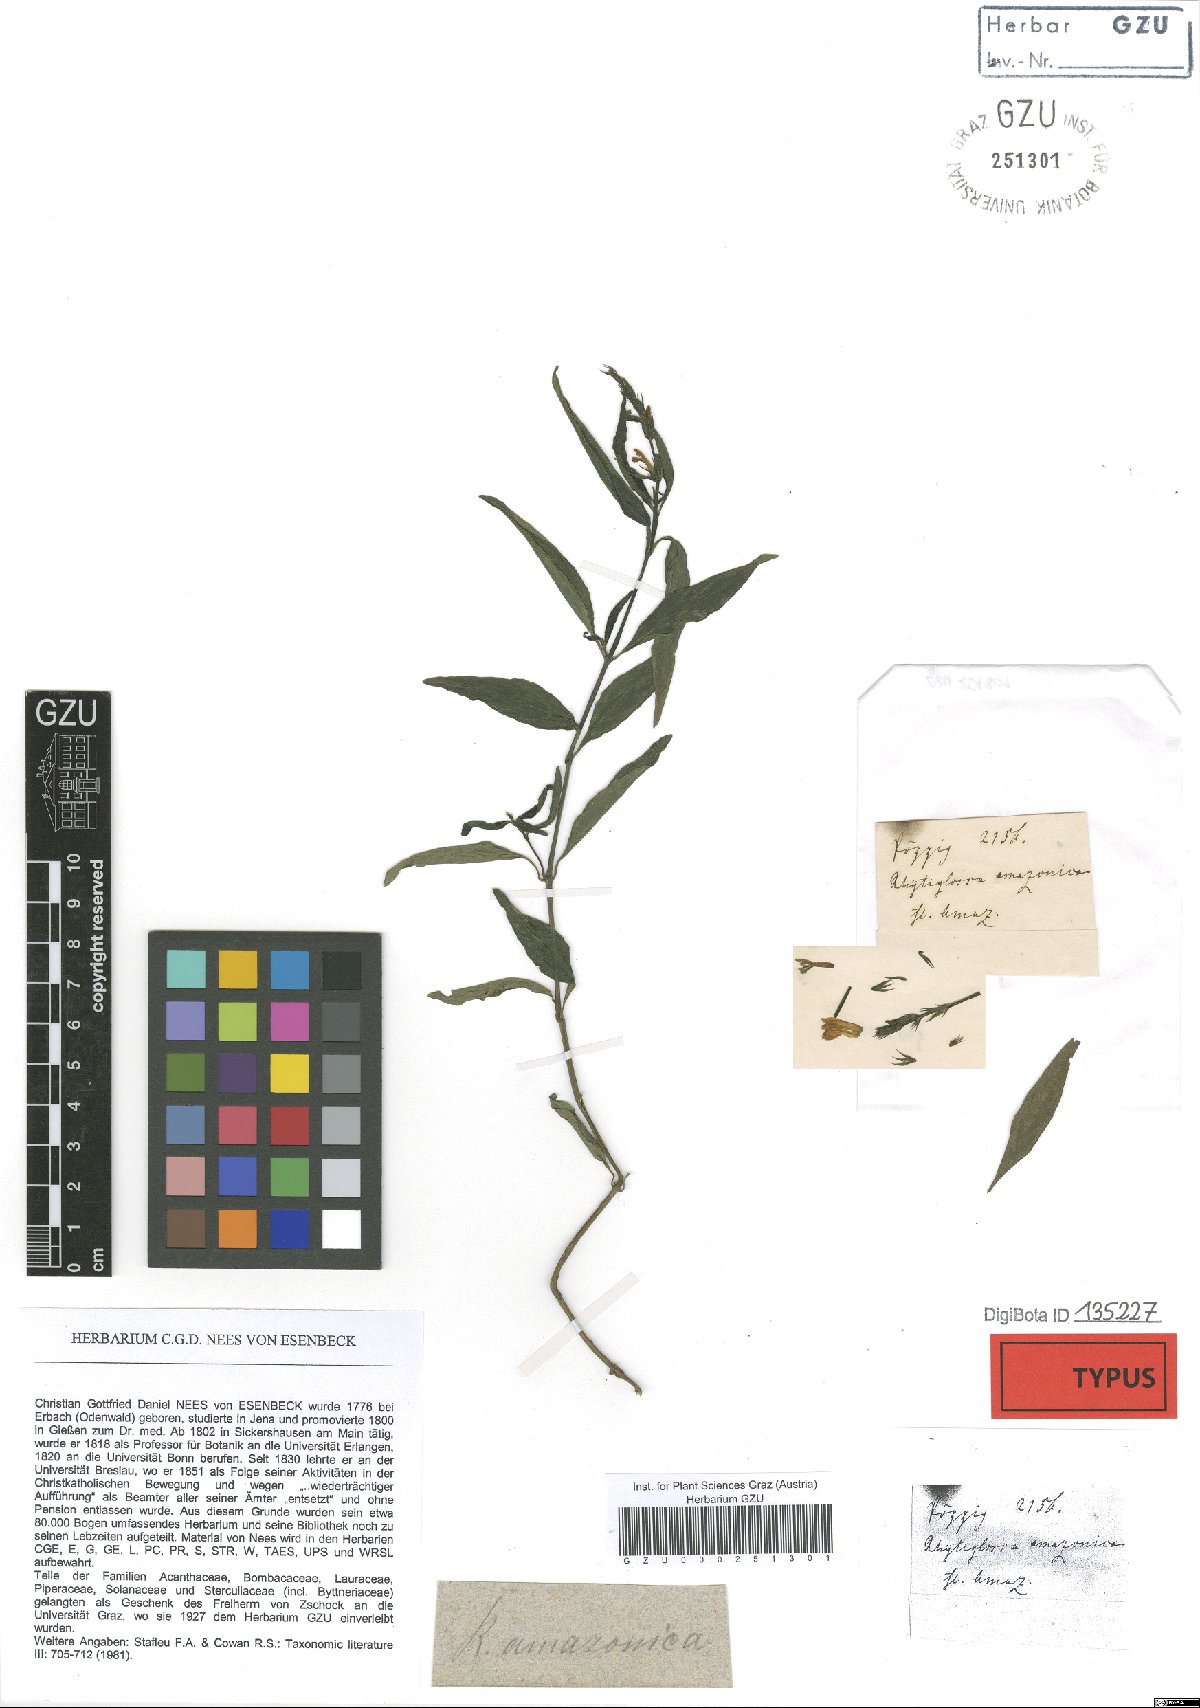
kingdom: Plantae
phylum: Tracheophyta
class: Magnoliopsida
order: Lamiales
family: Acanthaceae
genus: Justicia
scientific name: Justicia amazonica
